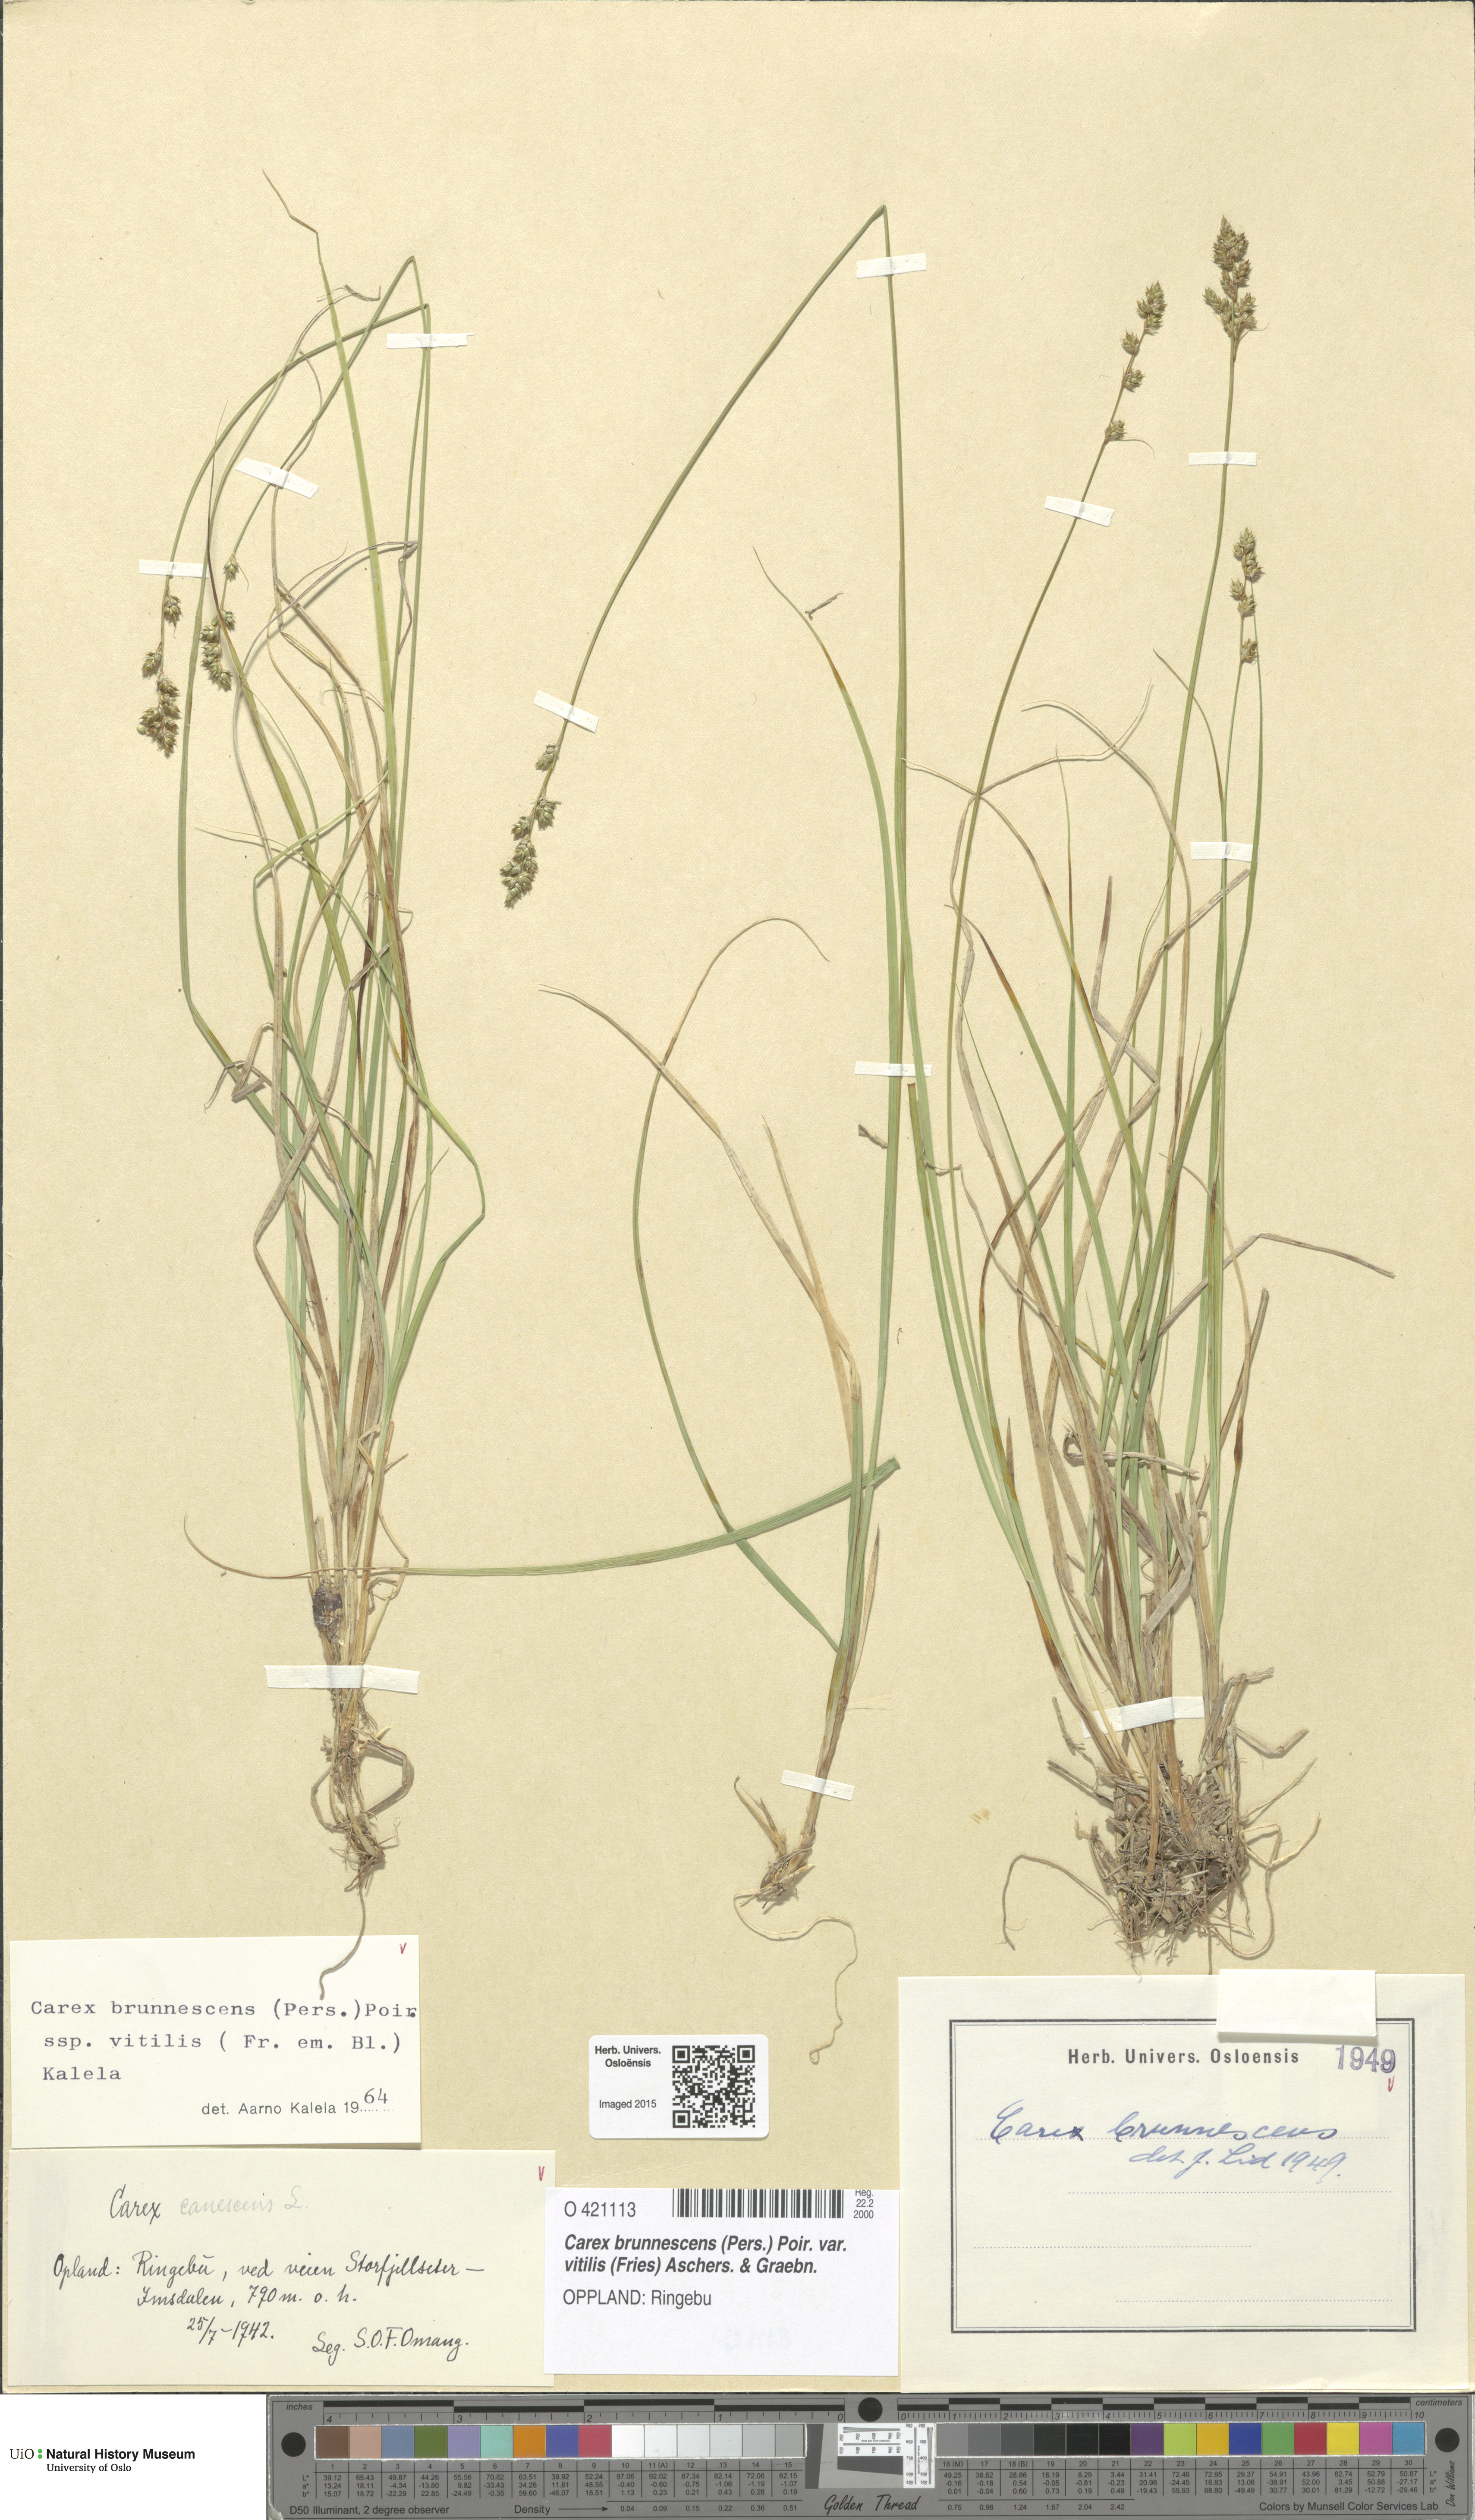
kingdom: Plantae
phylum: Tracheophyta
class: Liliopsida
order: Poales
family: Cyperaceae
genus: Carex
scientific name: Carex brunnescens
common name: Brown sedge
